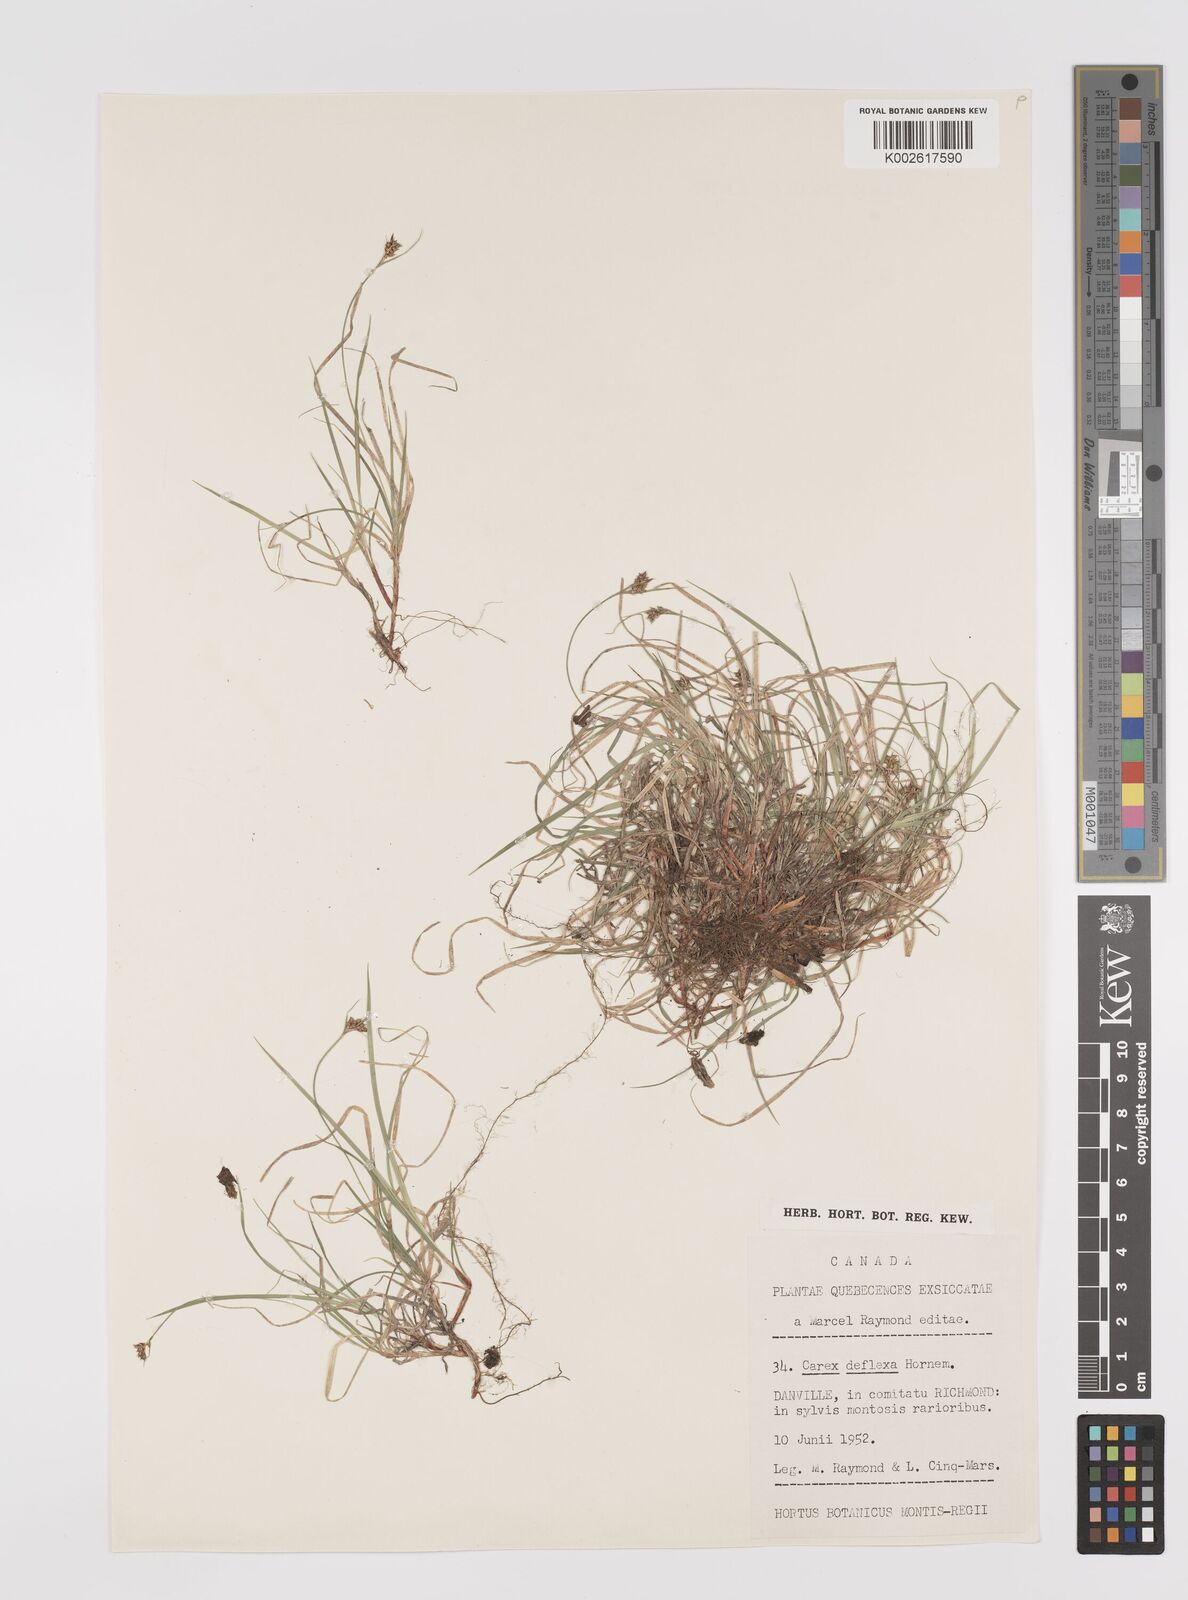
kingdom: Plantae
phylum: Tracheophyta
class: Liliopsida
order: Poales
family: Cyperaceae
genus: Carex
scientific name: Carex deflexa
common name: Bent northern sedge
